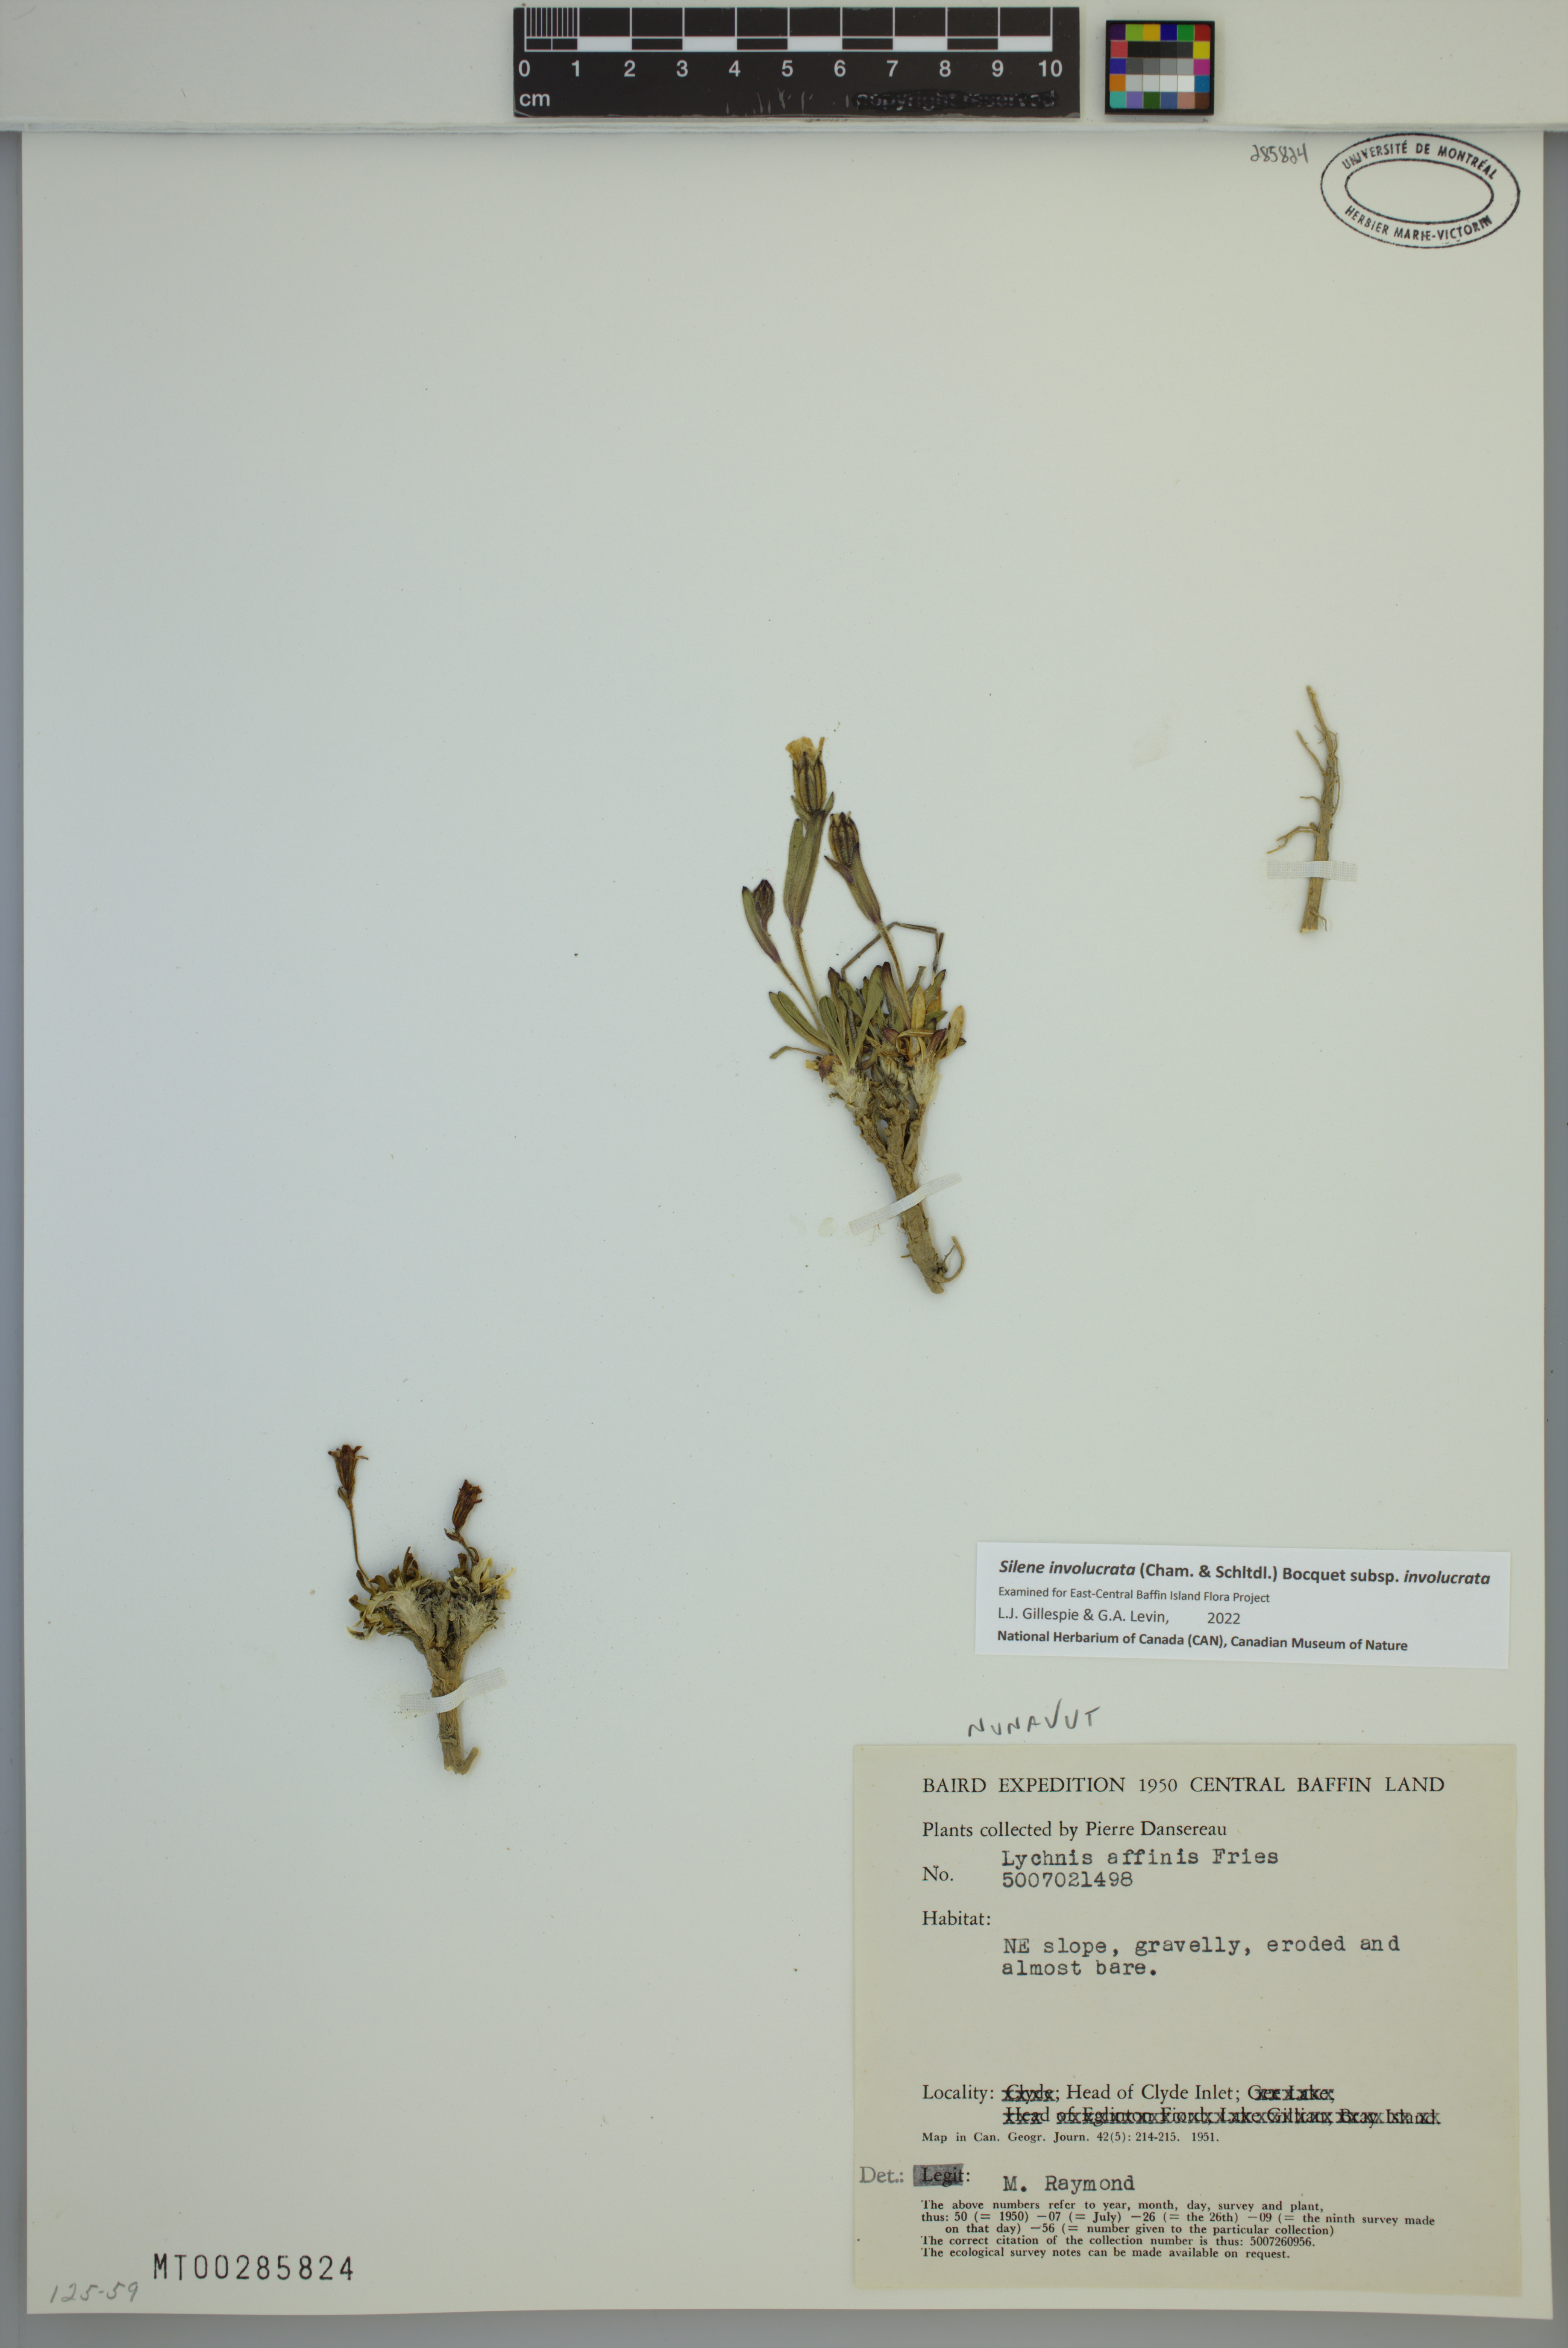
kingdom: Plantae
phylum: Tracheophyta
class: Magnoliopsida
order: Caryophyllales
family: Caryophyllaceae
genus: Silene
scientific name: Silene involucrata
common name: Greater arctic campion
